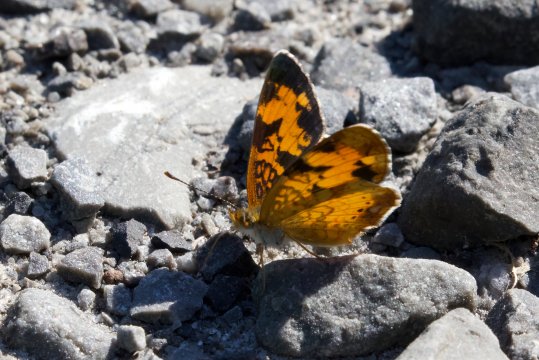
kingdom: Animalia
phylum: Arthropoda
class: Insecta
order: Lepidoptera
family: Nymphalidae
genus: Phyciodes
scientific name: Phyciodes tharos
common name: Northern Crescent
